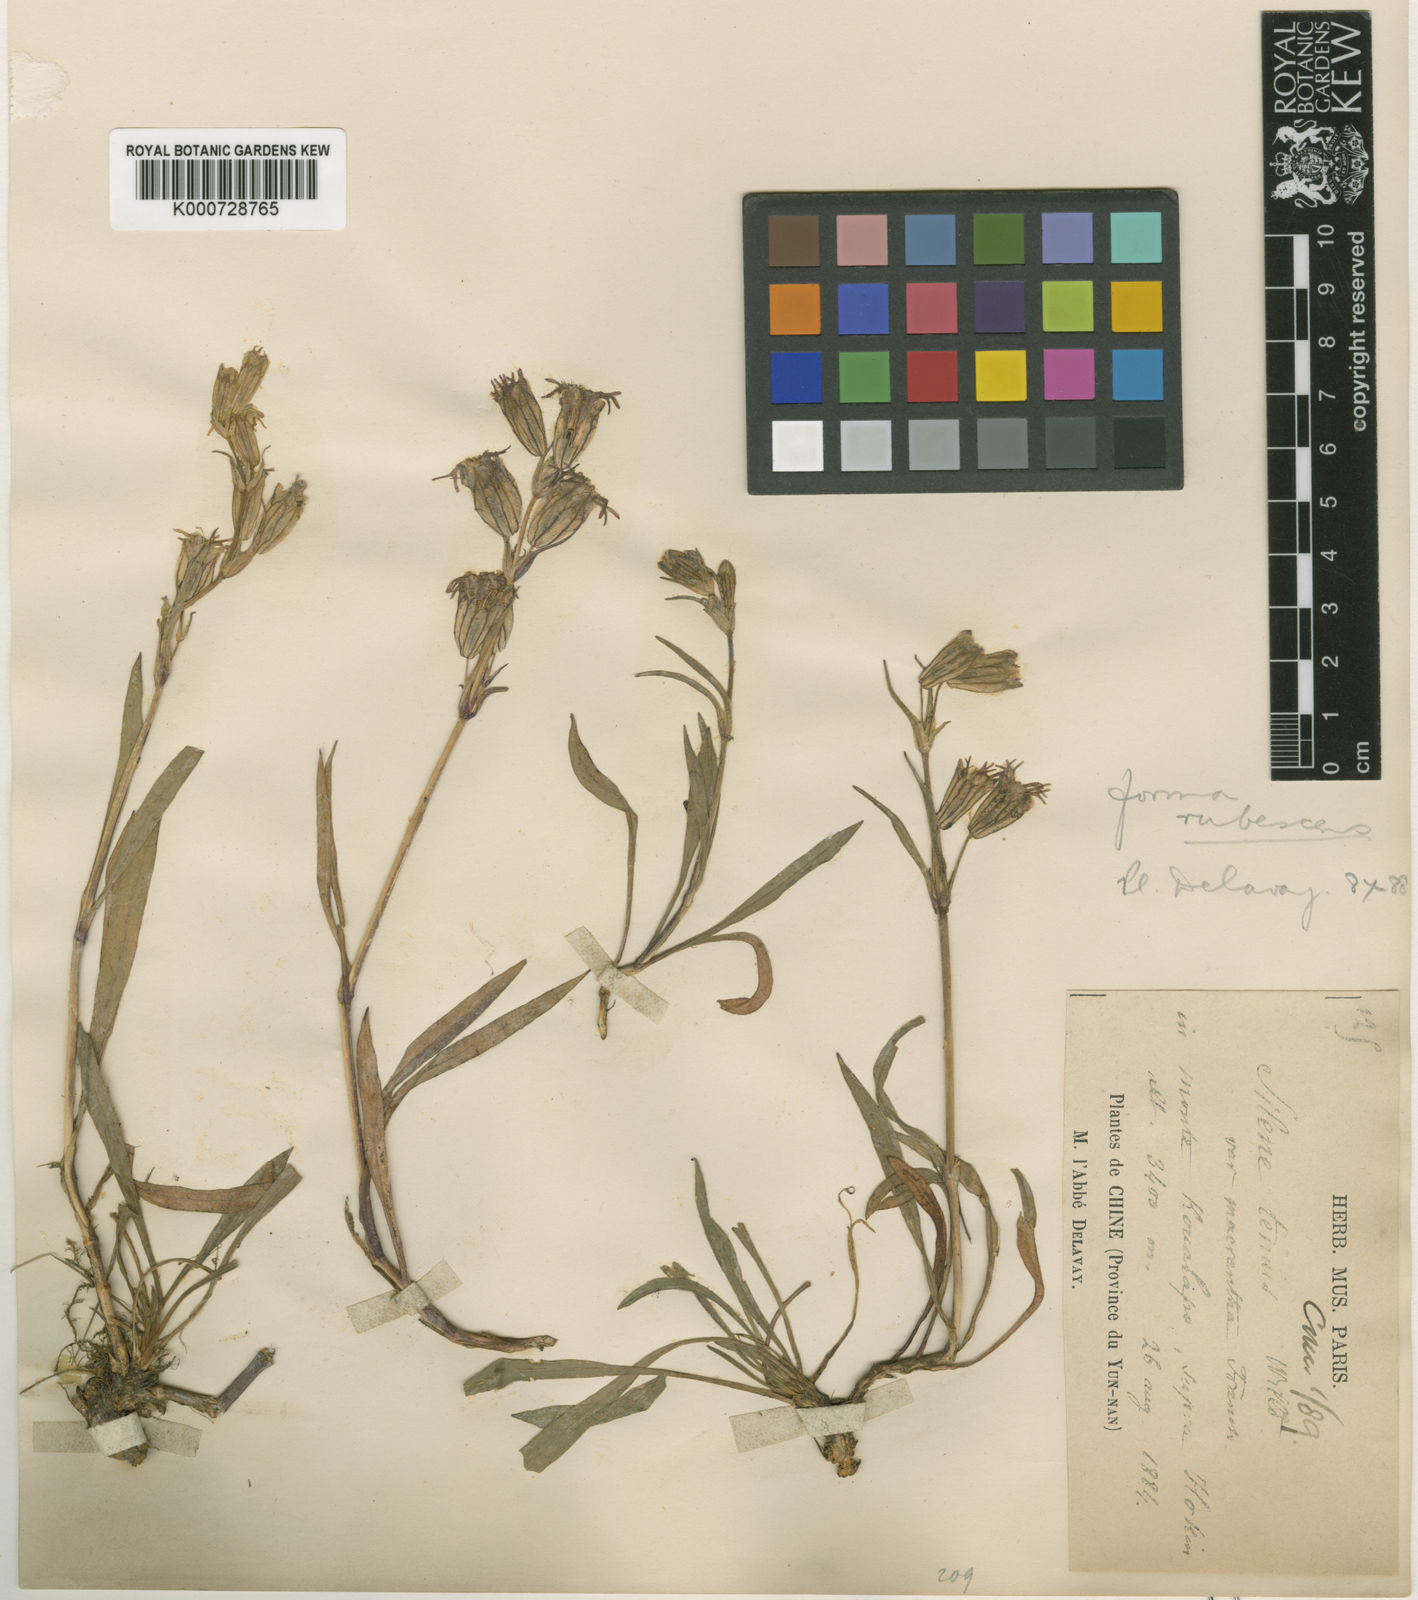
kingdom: Plantae
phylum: Tracheophyta
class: Magnoliopsida
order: Caryophyllales
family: Caryophyllaceae
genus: Silene
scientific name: Silene
